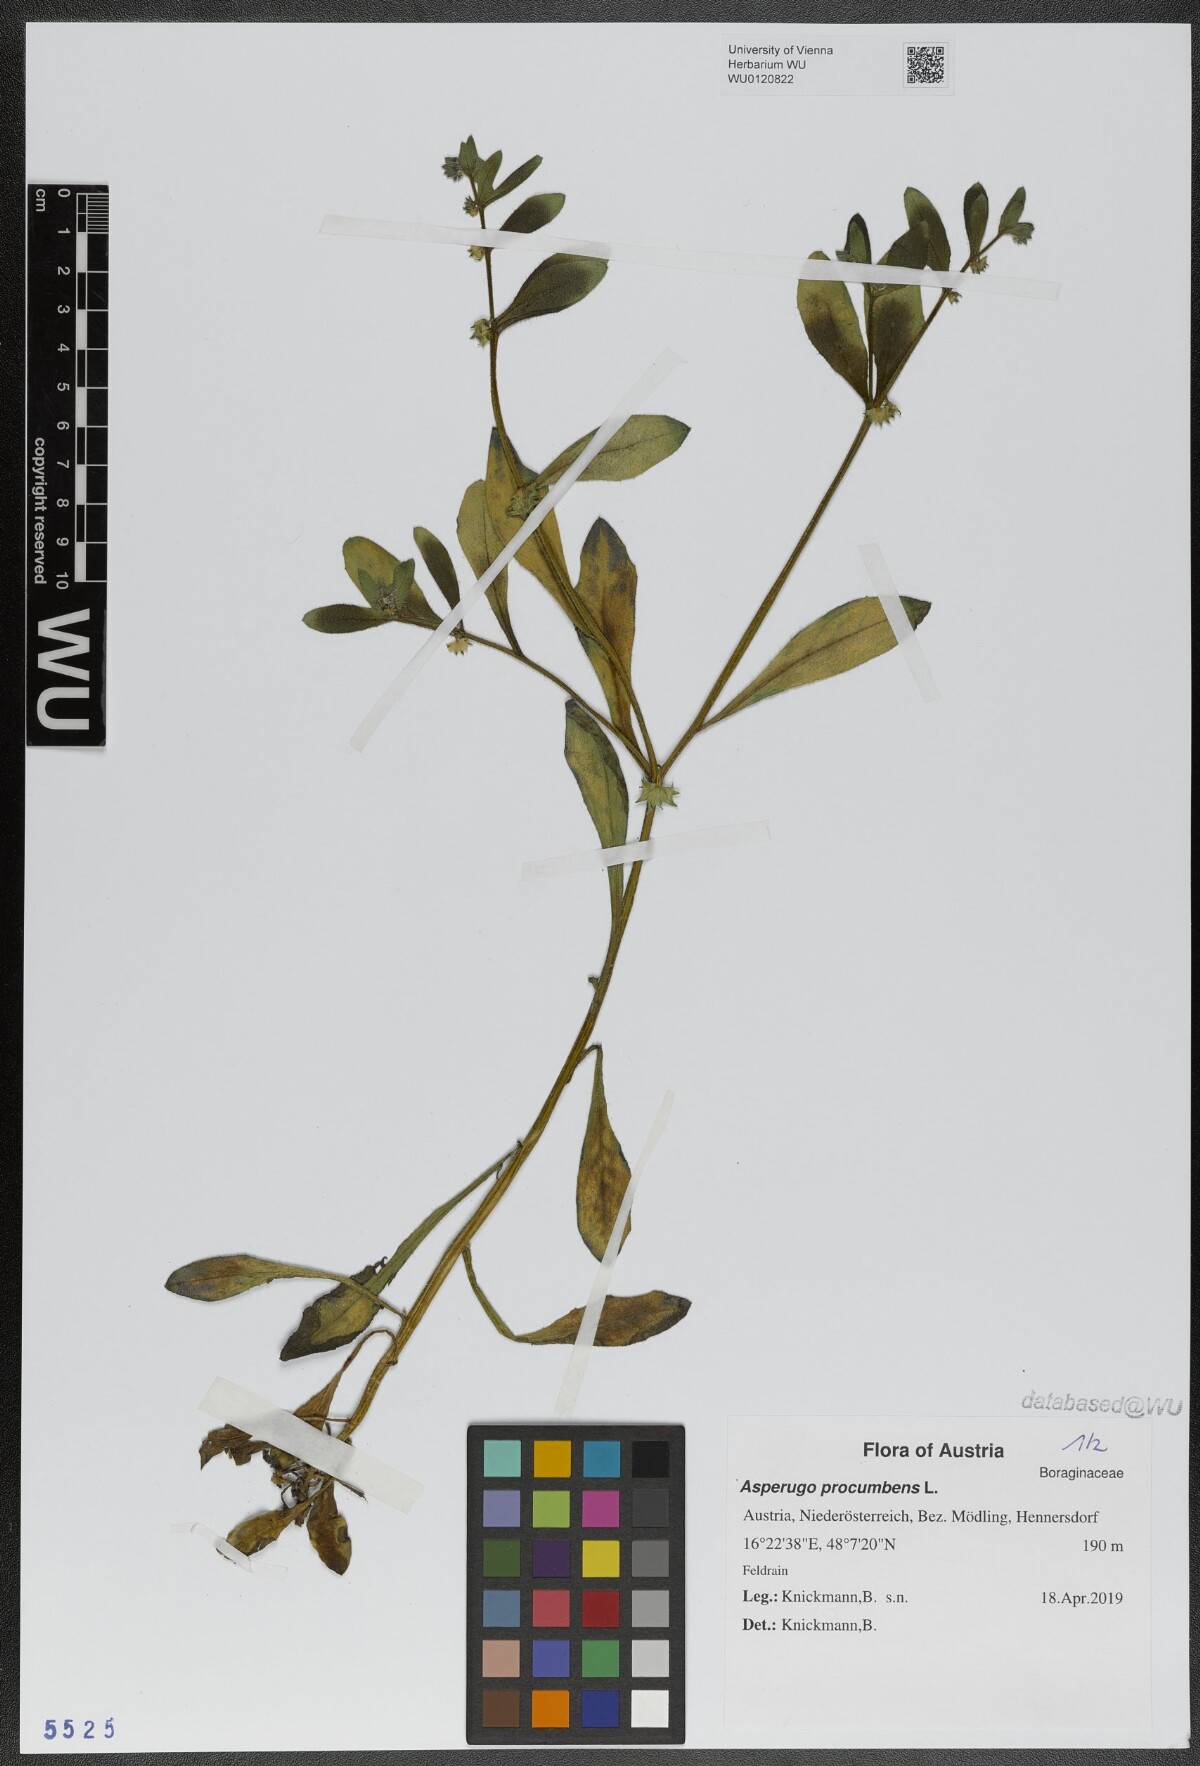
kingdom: Plantae
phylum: Tracheophyta
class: Magnoliopsida
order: Boraginales
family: Boraginaceae
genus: Asperugo
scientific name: Asperugo procumbens
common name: Madwort
